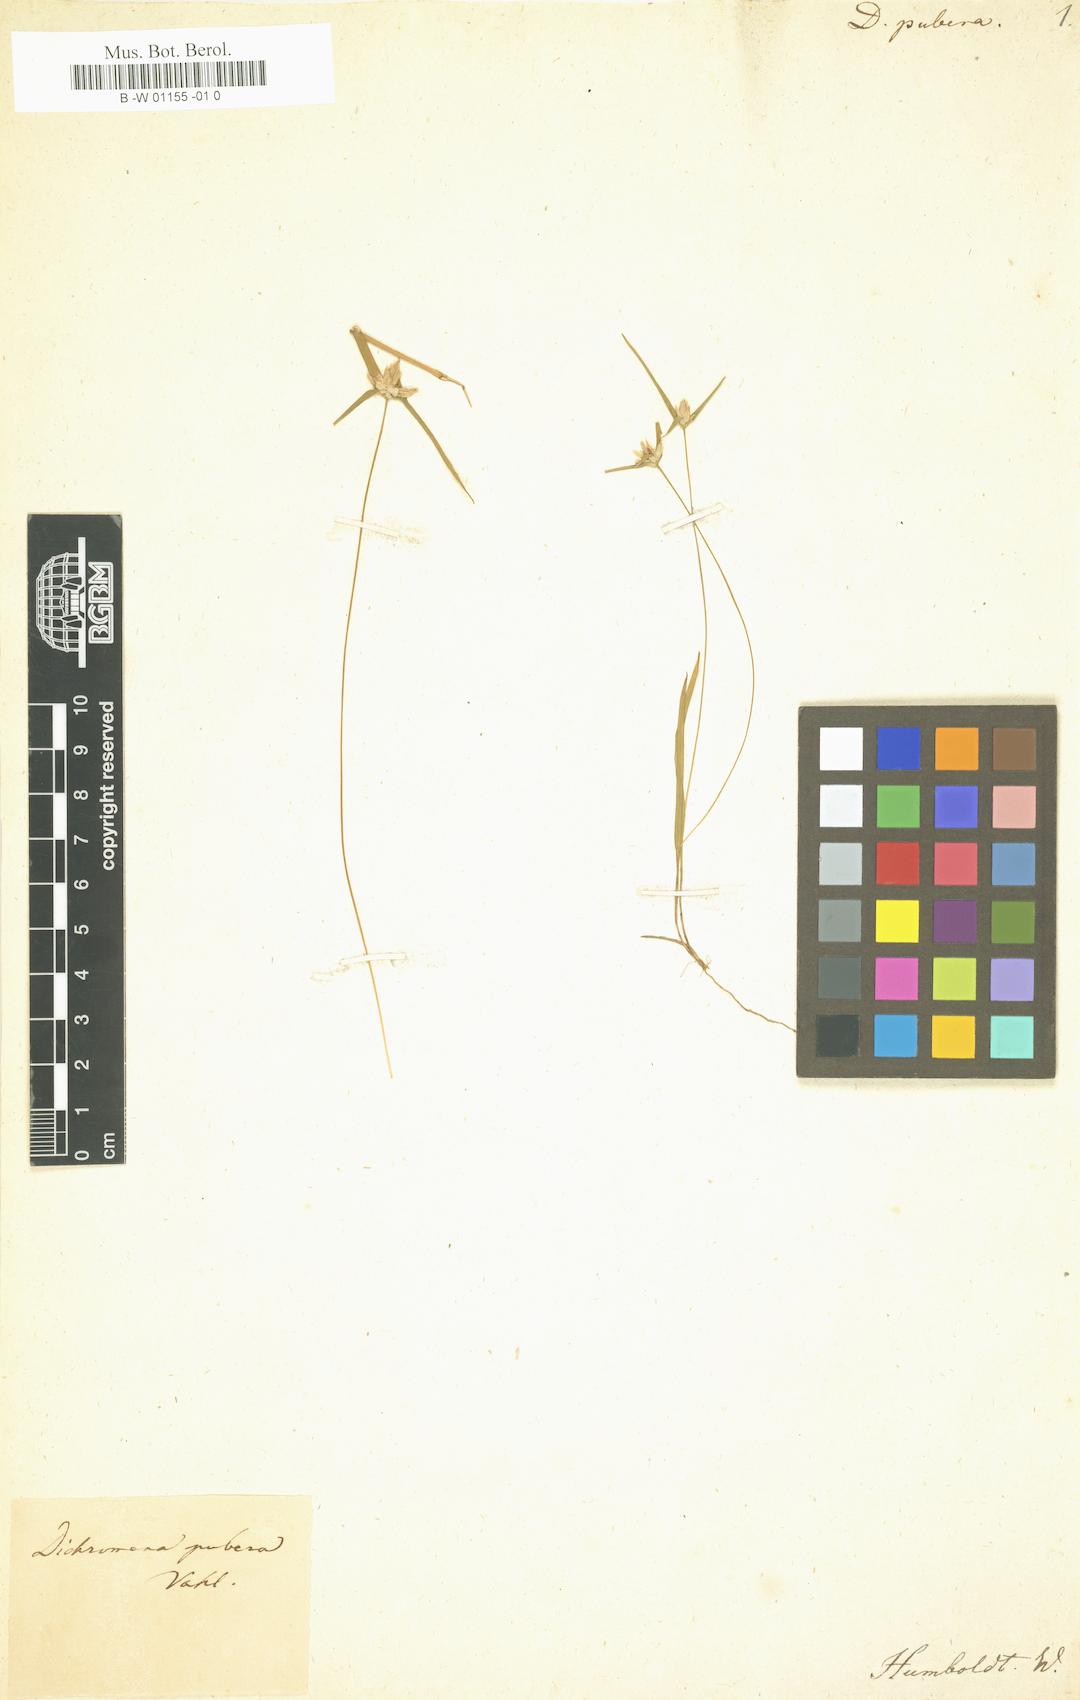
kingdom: Plantae
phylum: Tracheophyta
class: Liliopsida
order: Poales
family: Cyperaceae
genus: Rhynchospora
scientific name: Rhynchospora pubera
